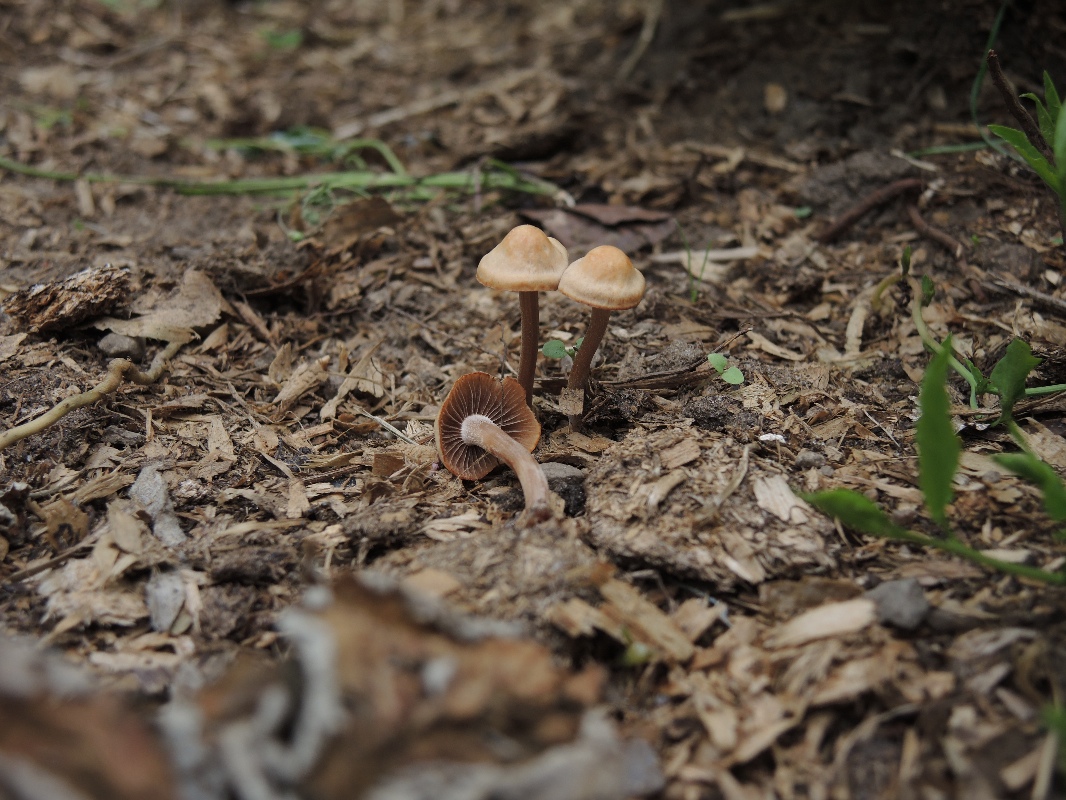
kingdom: Fungi
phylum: Basidiomycota
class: Agaricomycetes
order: Agaricales
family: Bolbitiaceae
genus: Panaeolus
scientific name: Panaeolus cinctulus
